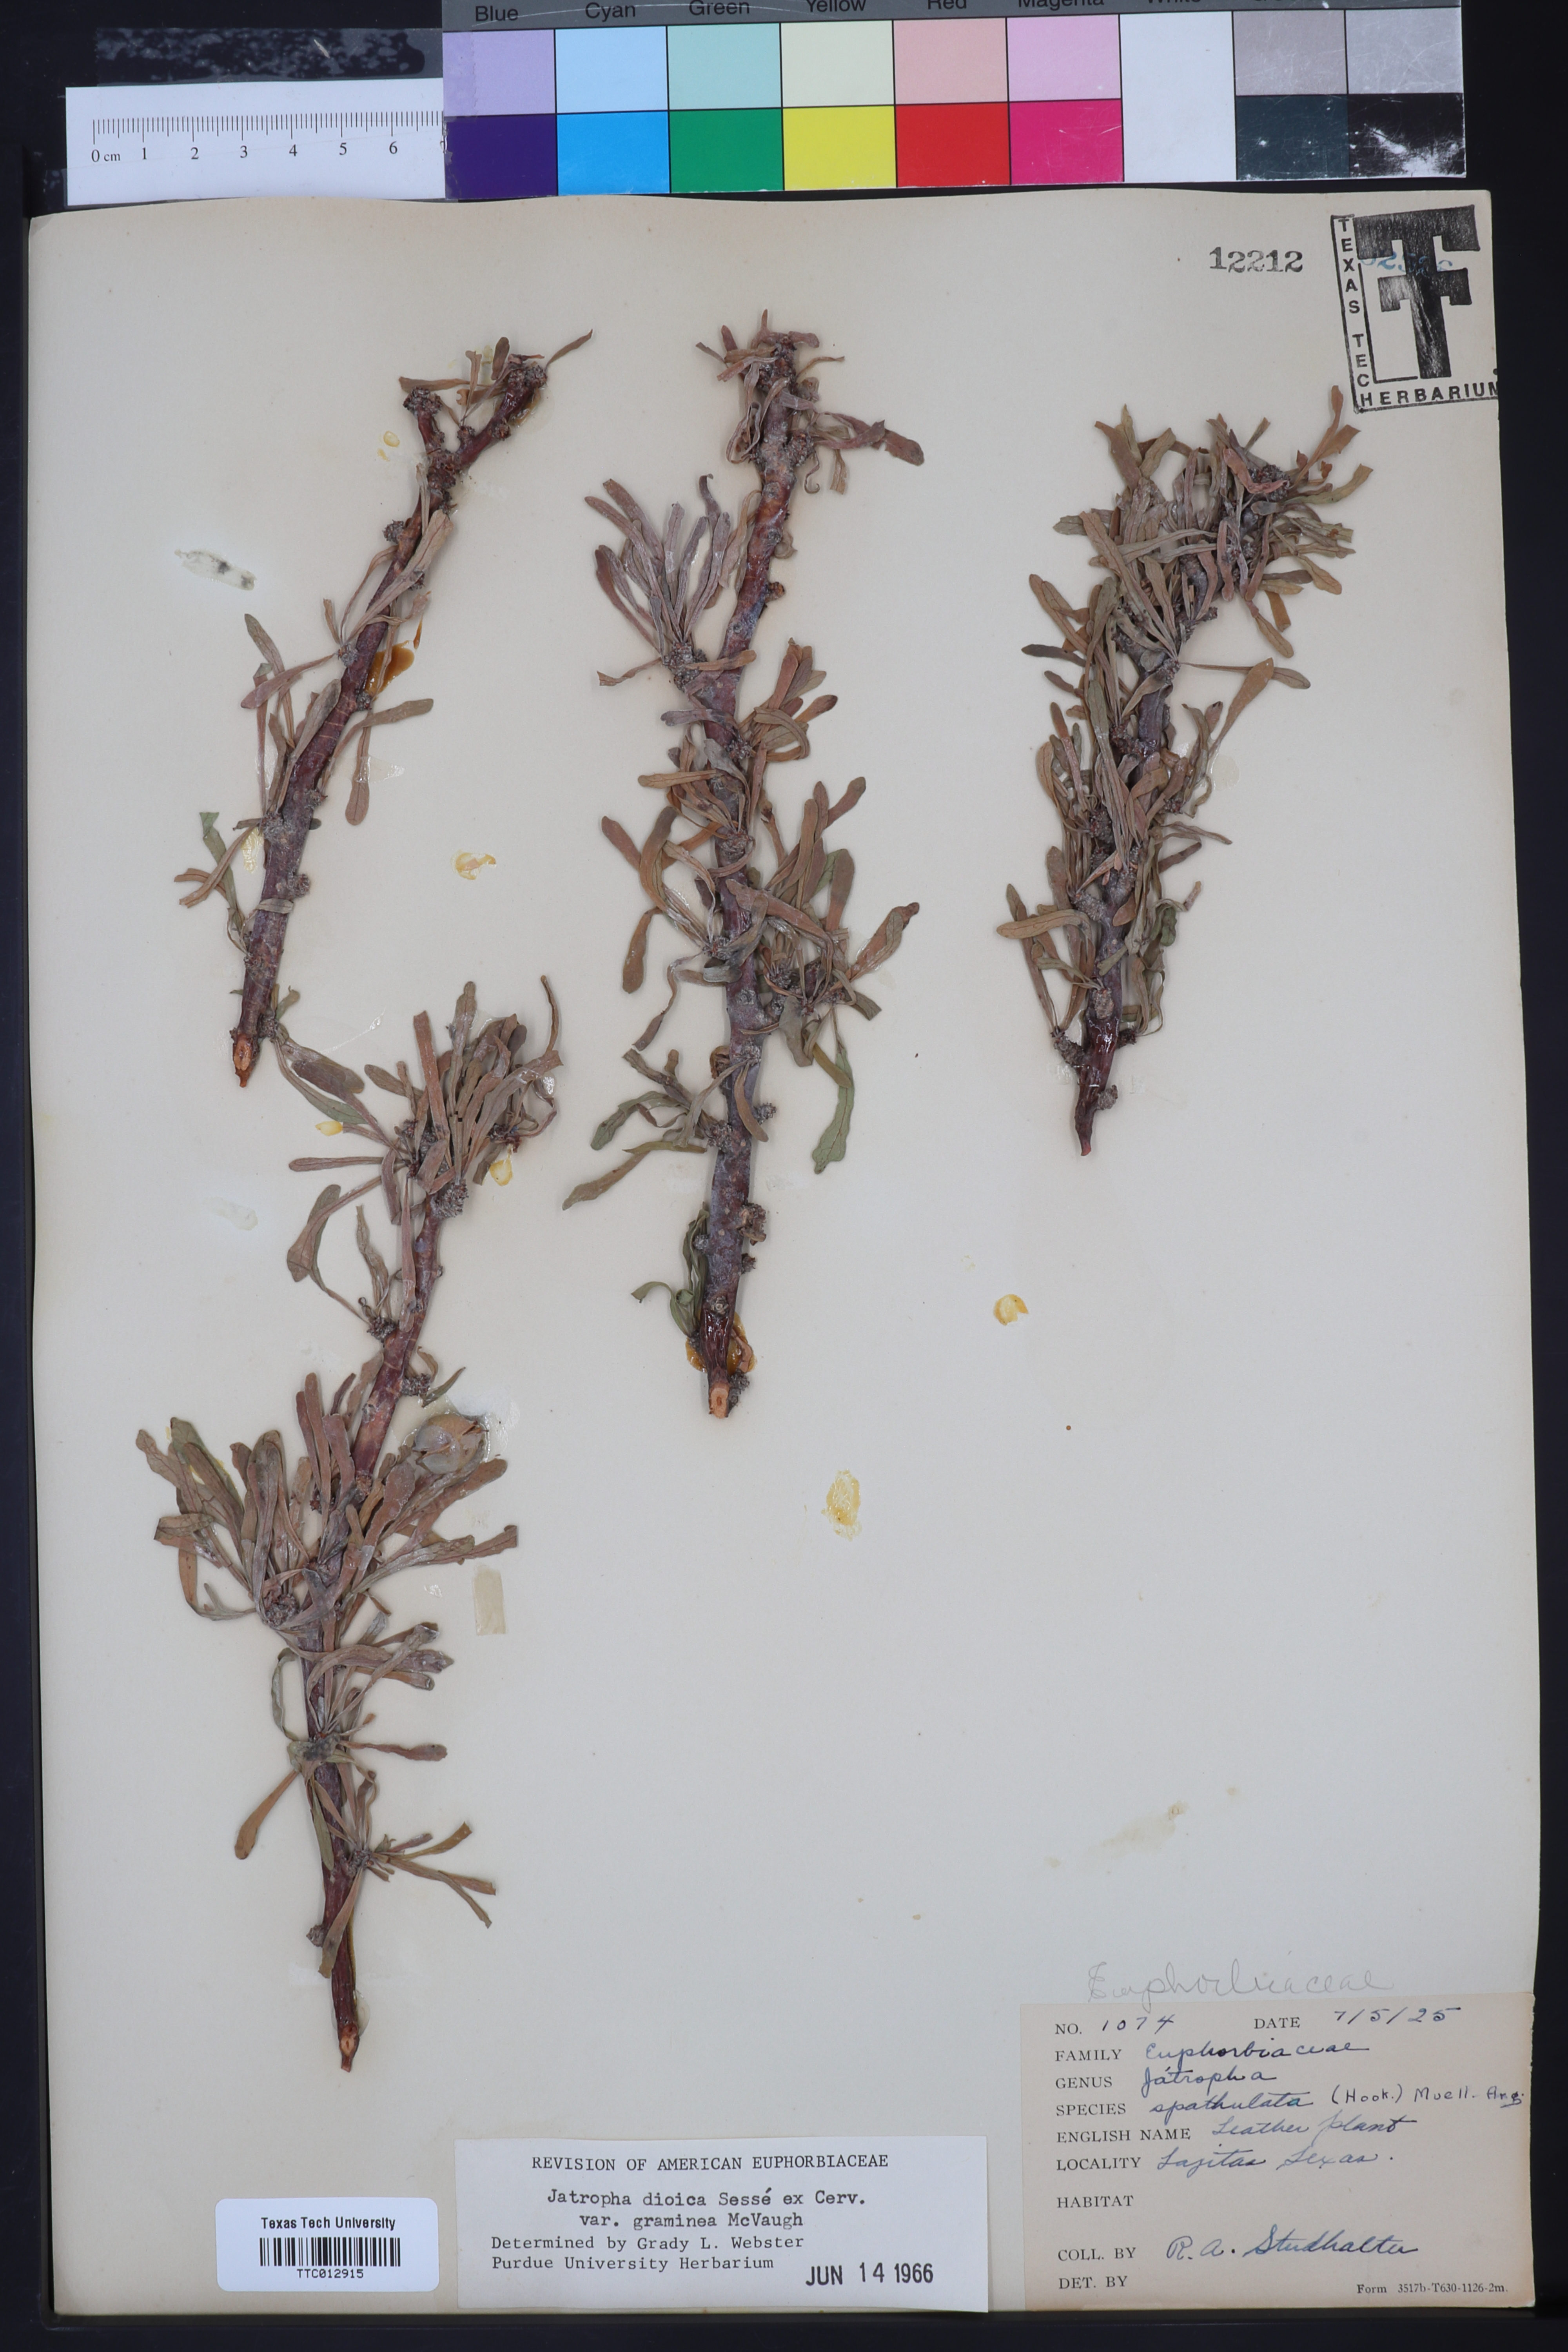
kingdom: Plantae
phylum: Tracheophyta
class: Magnoliopsida
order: Malpighiales
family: Euphorbiaceae
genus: Jatropha
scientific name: Jatropha dioica
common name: Leatherstem
